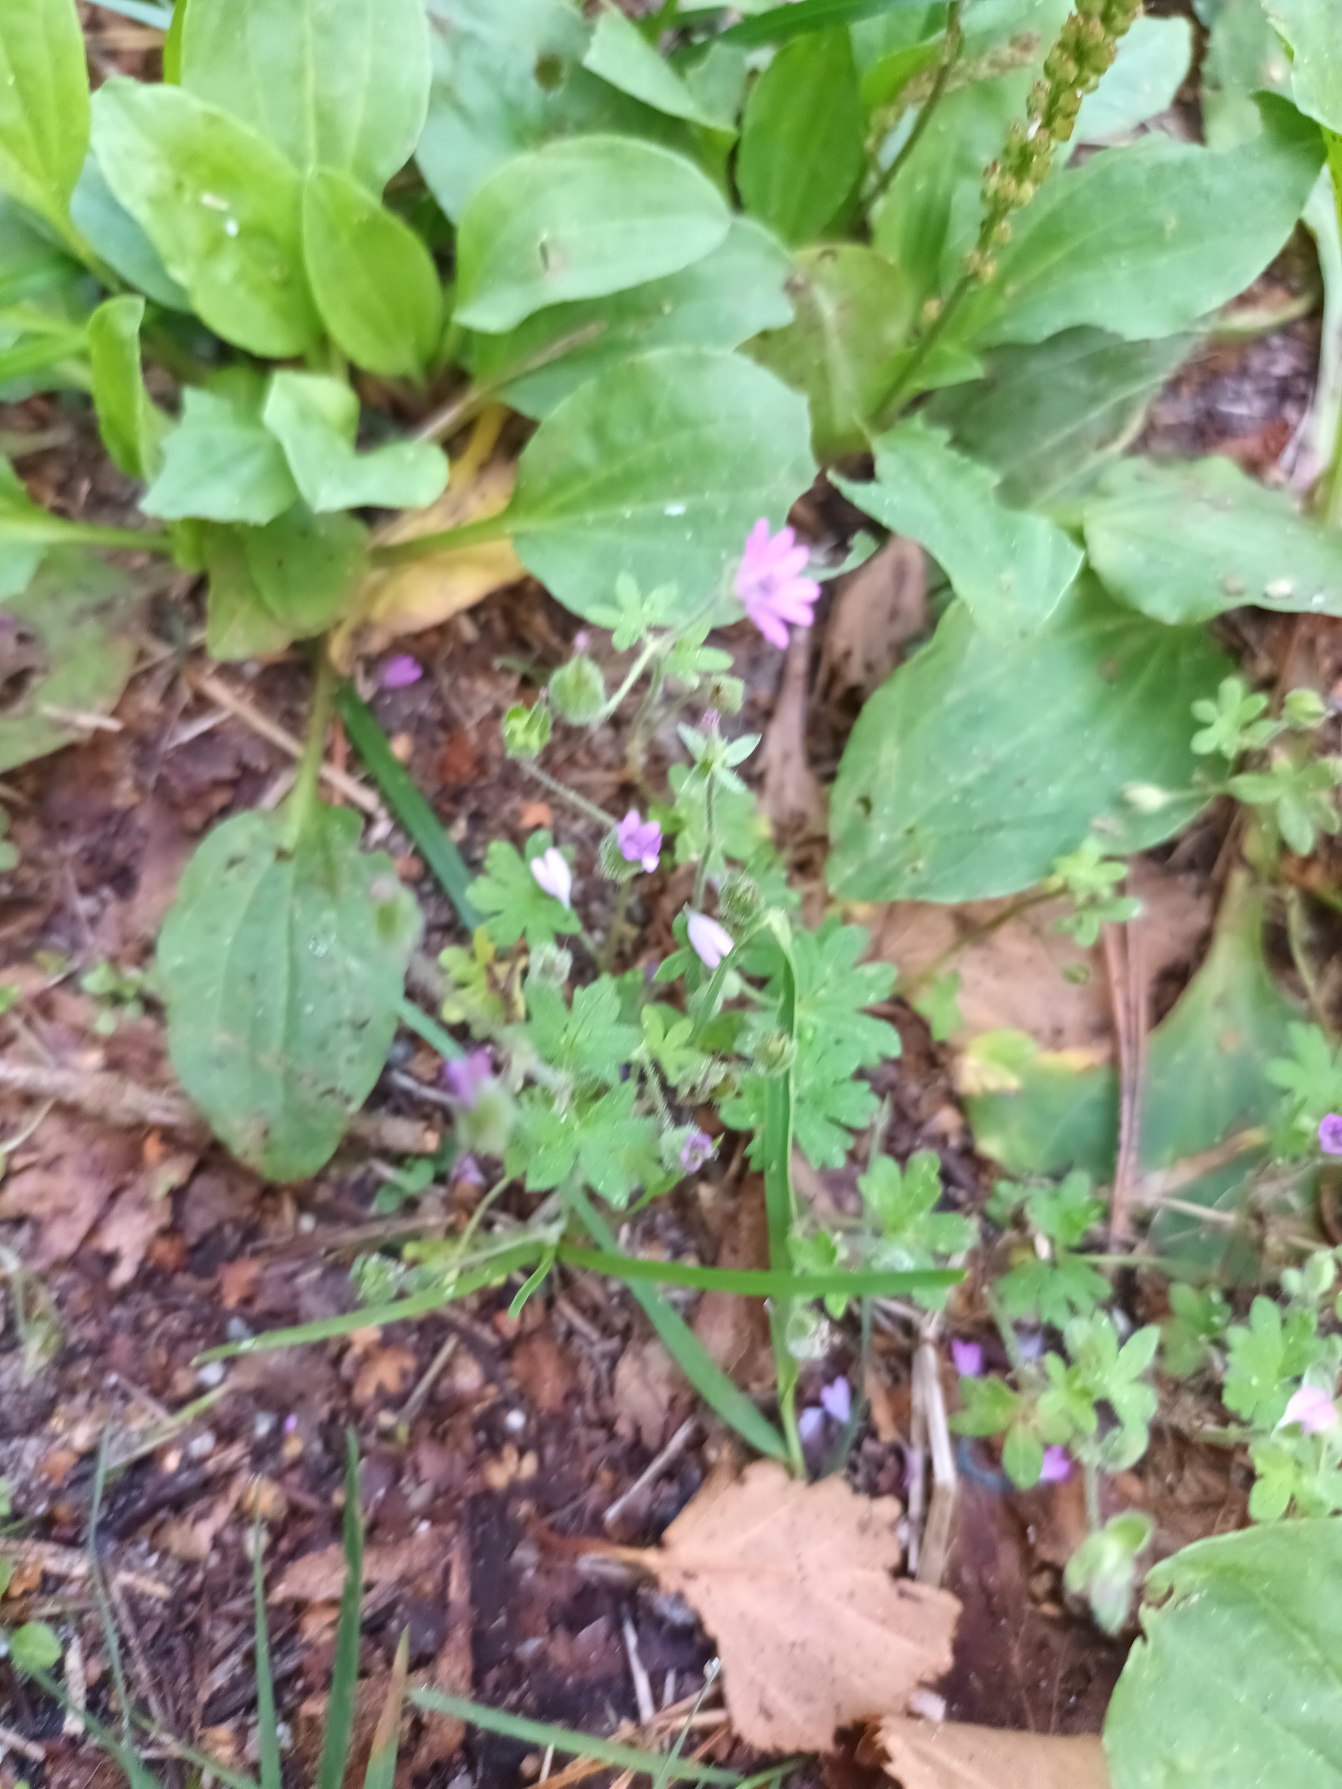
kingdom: Plantae
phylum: Tracheophyta
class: Magnoliopsida
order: Geraniales
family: Geraniaceae
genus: Geranium
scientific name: Geranium molle
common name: Blød storkenæb
